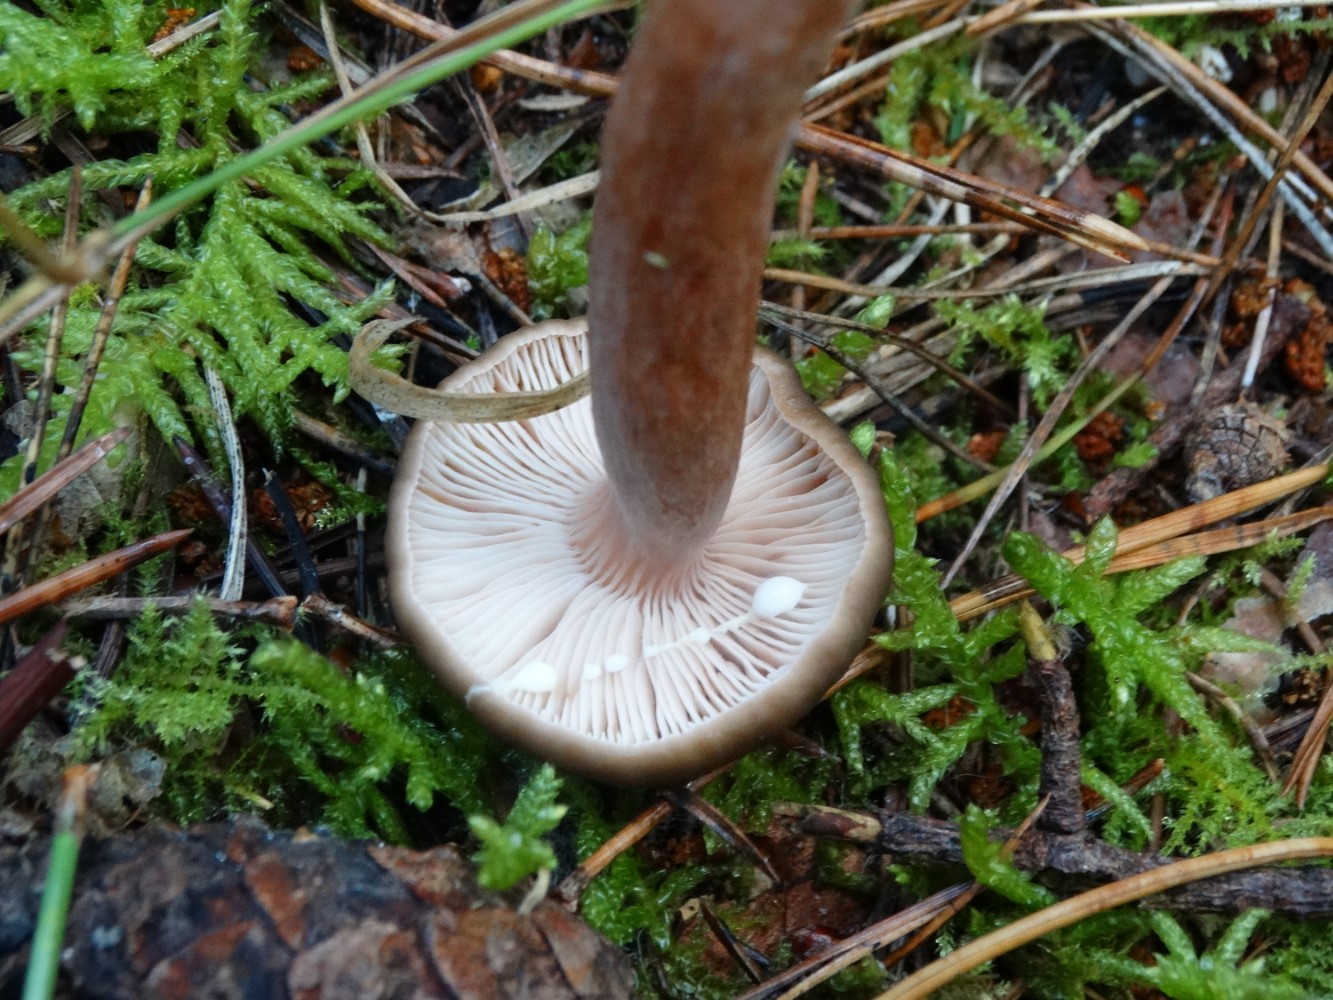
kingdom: Fungi
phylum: Basidiomycota
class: Agaricomycetes
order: Russulales
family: Russulaceae
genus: Lactarius
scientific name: Lactarius hepaticus
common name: leverbrun mælkehat
